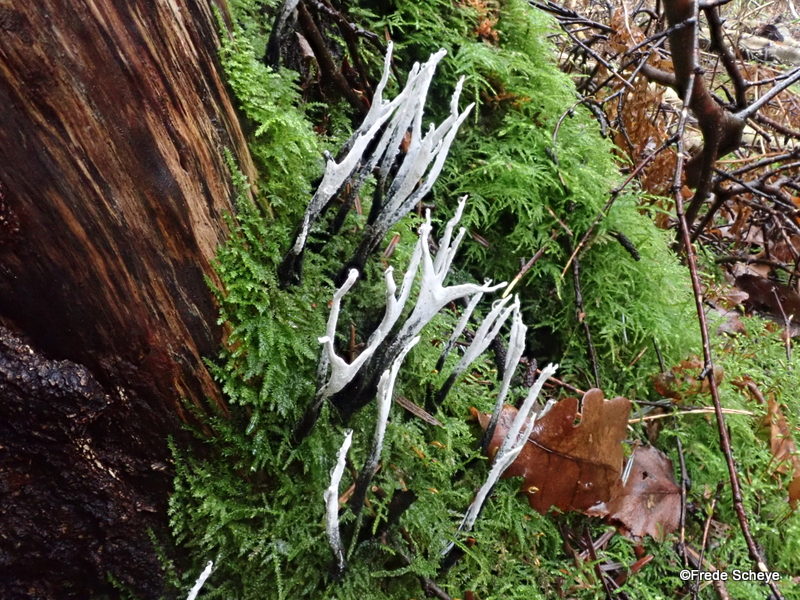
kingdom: Fungi
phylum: Ascomycota
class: Sordariomycetes
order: Xylariales
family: Xylariaceae
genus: Xylaria
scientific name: Xylaria hypoxylon
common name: grenet stødsvamp
